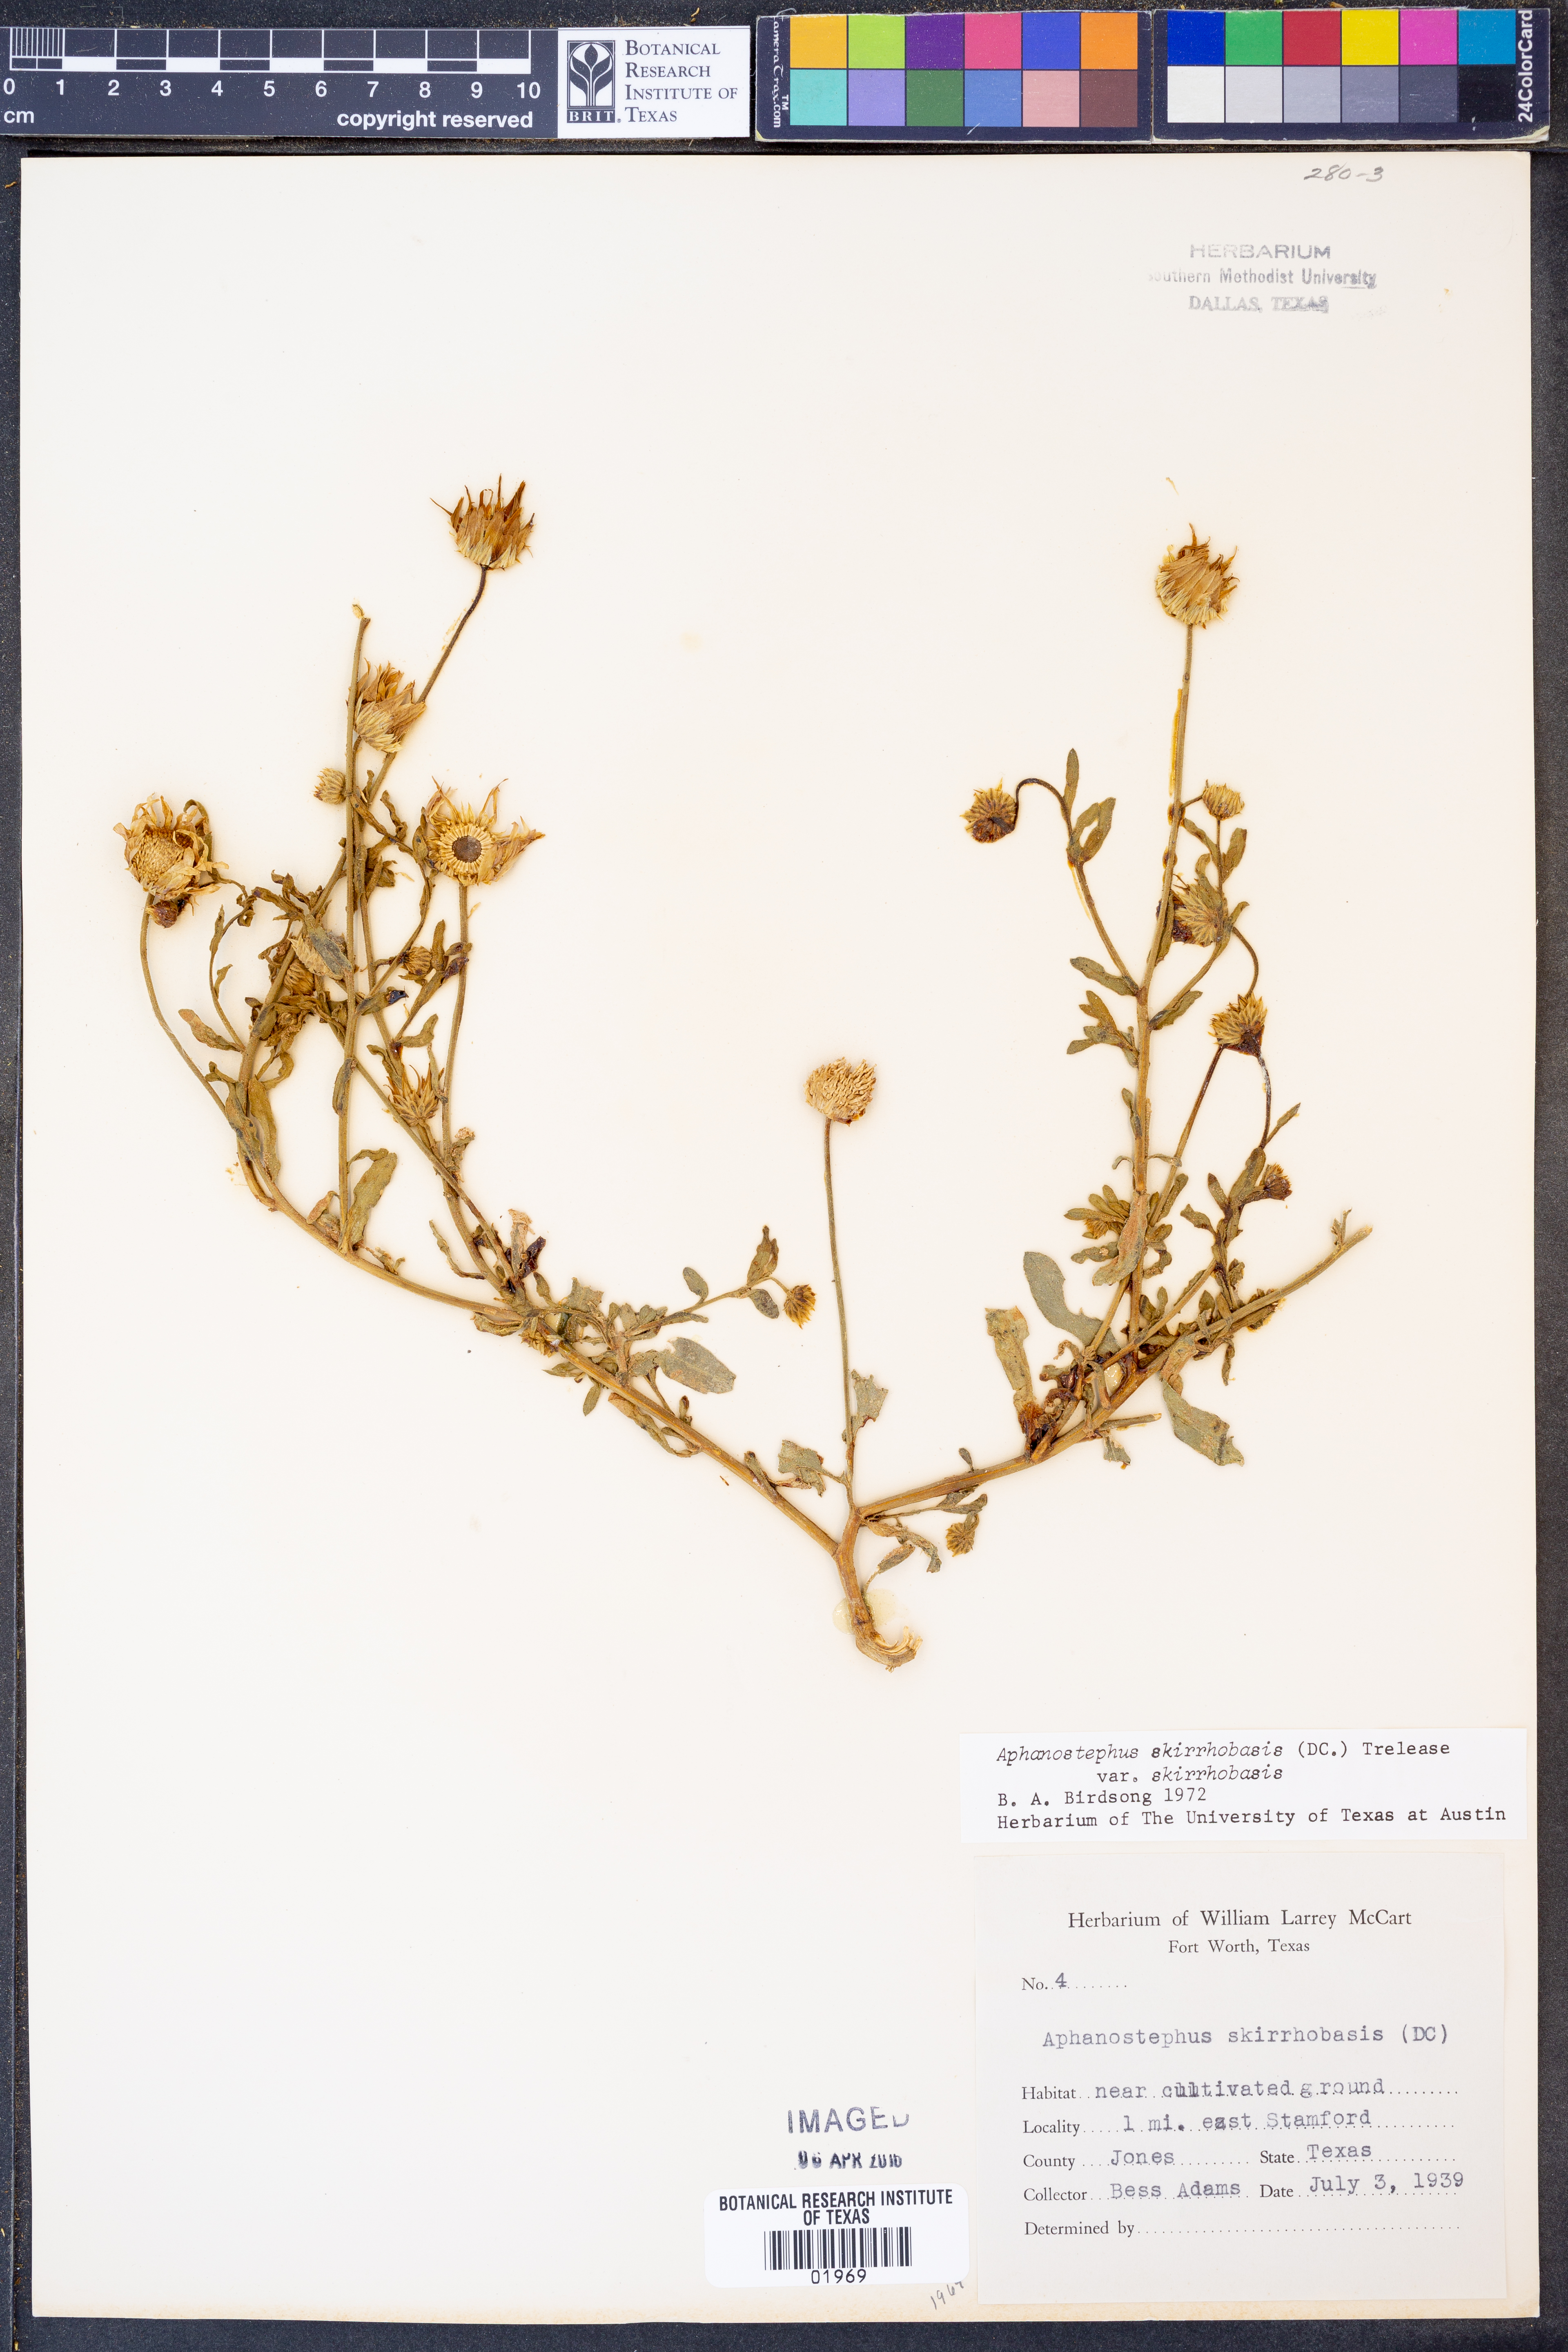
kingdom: Plantae
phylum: Tracheophyta
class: Magnoliopsida
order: Asterales
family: Asteraceae
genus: Aphanostephus
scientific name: Aphanostephus skirrhobasis
